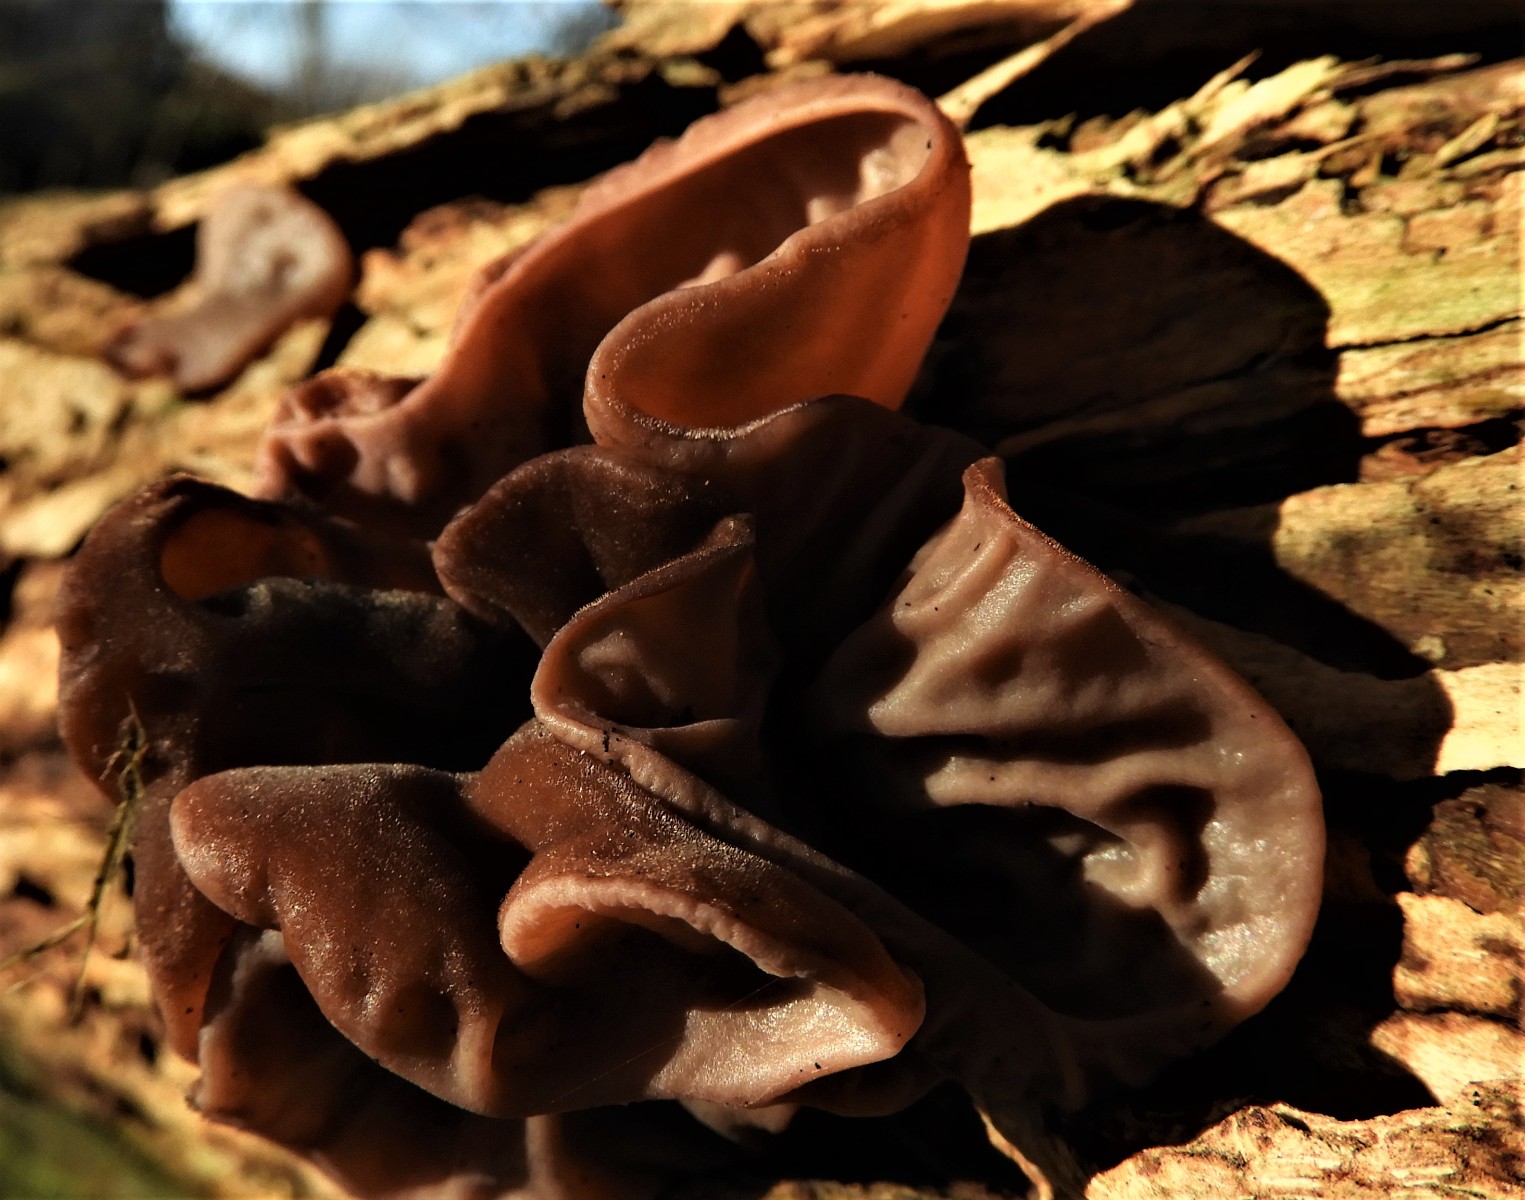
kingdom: Fungi
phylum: Basidiomycota
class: Agaricomycetes
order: Auriculariales
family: Auriculariaceae
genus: Auricularia
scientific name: Auricularia auricula-judae
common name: almindelig judasøre
